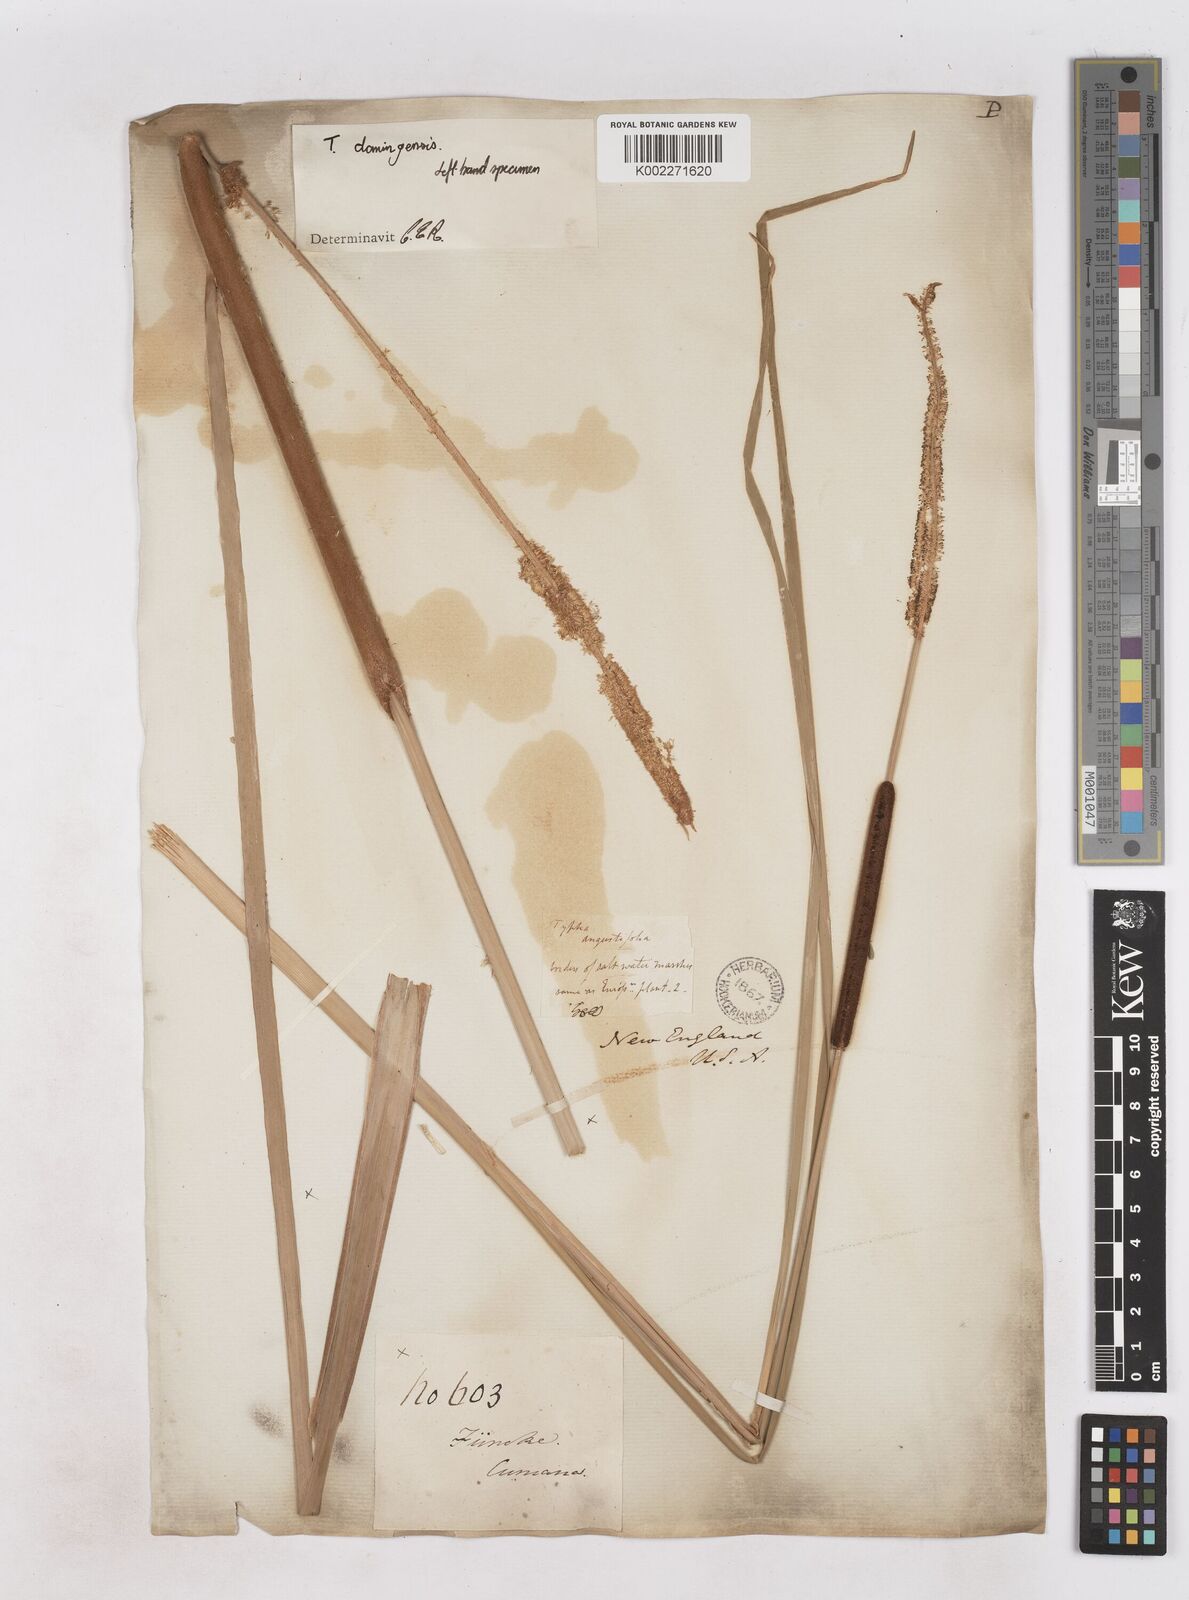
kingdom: Plantae
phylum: Tracheophyta
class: Liliopsida
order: Poales
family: Typhaceae
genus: Typha
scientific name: Typha angustifolia
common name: Lesser bulrush
